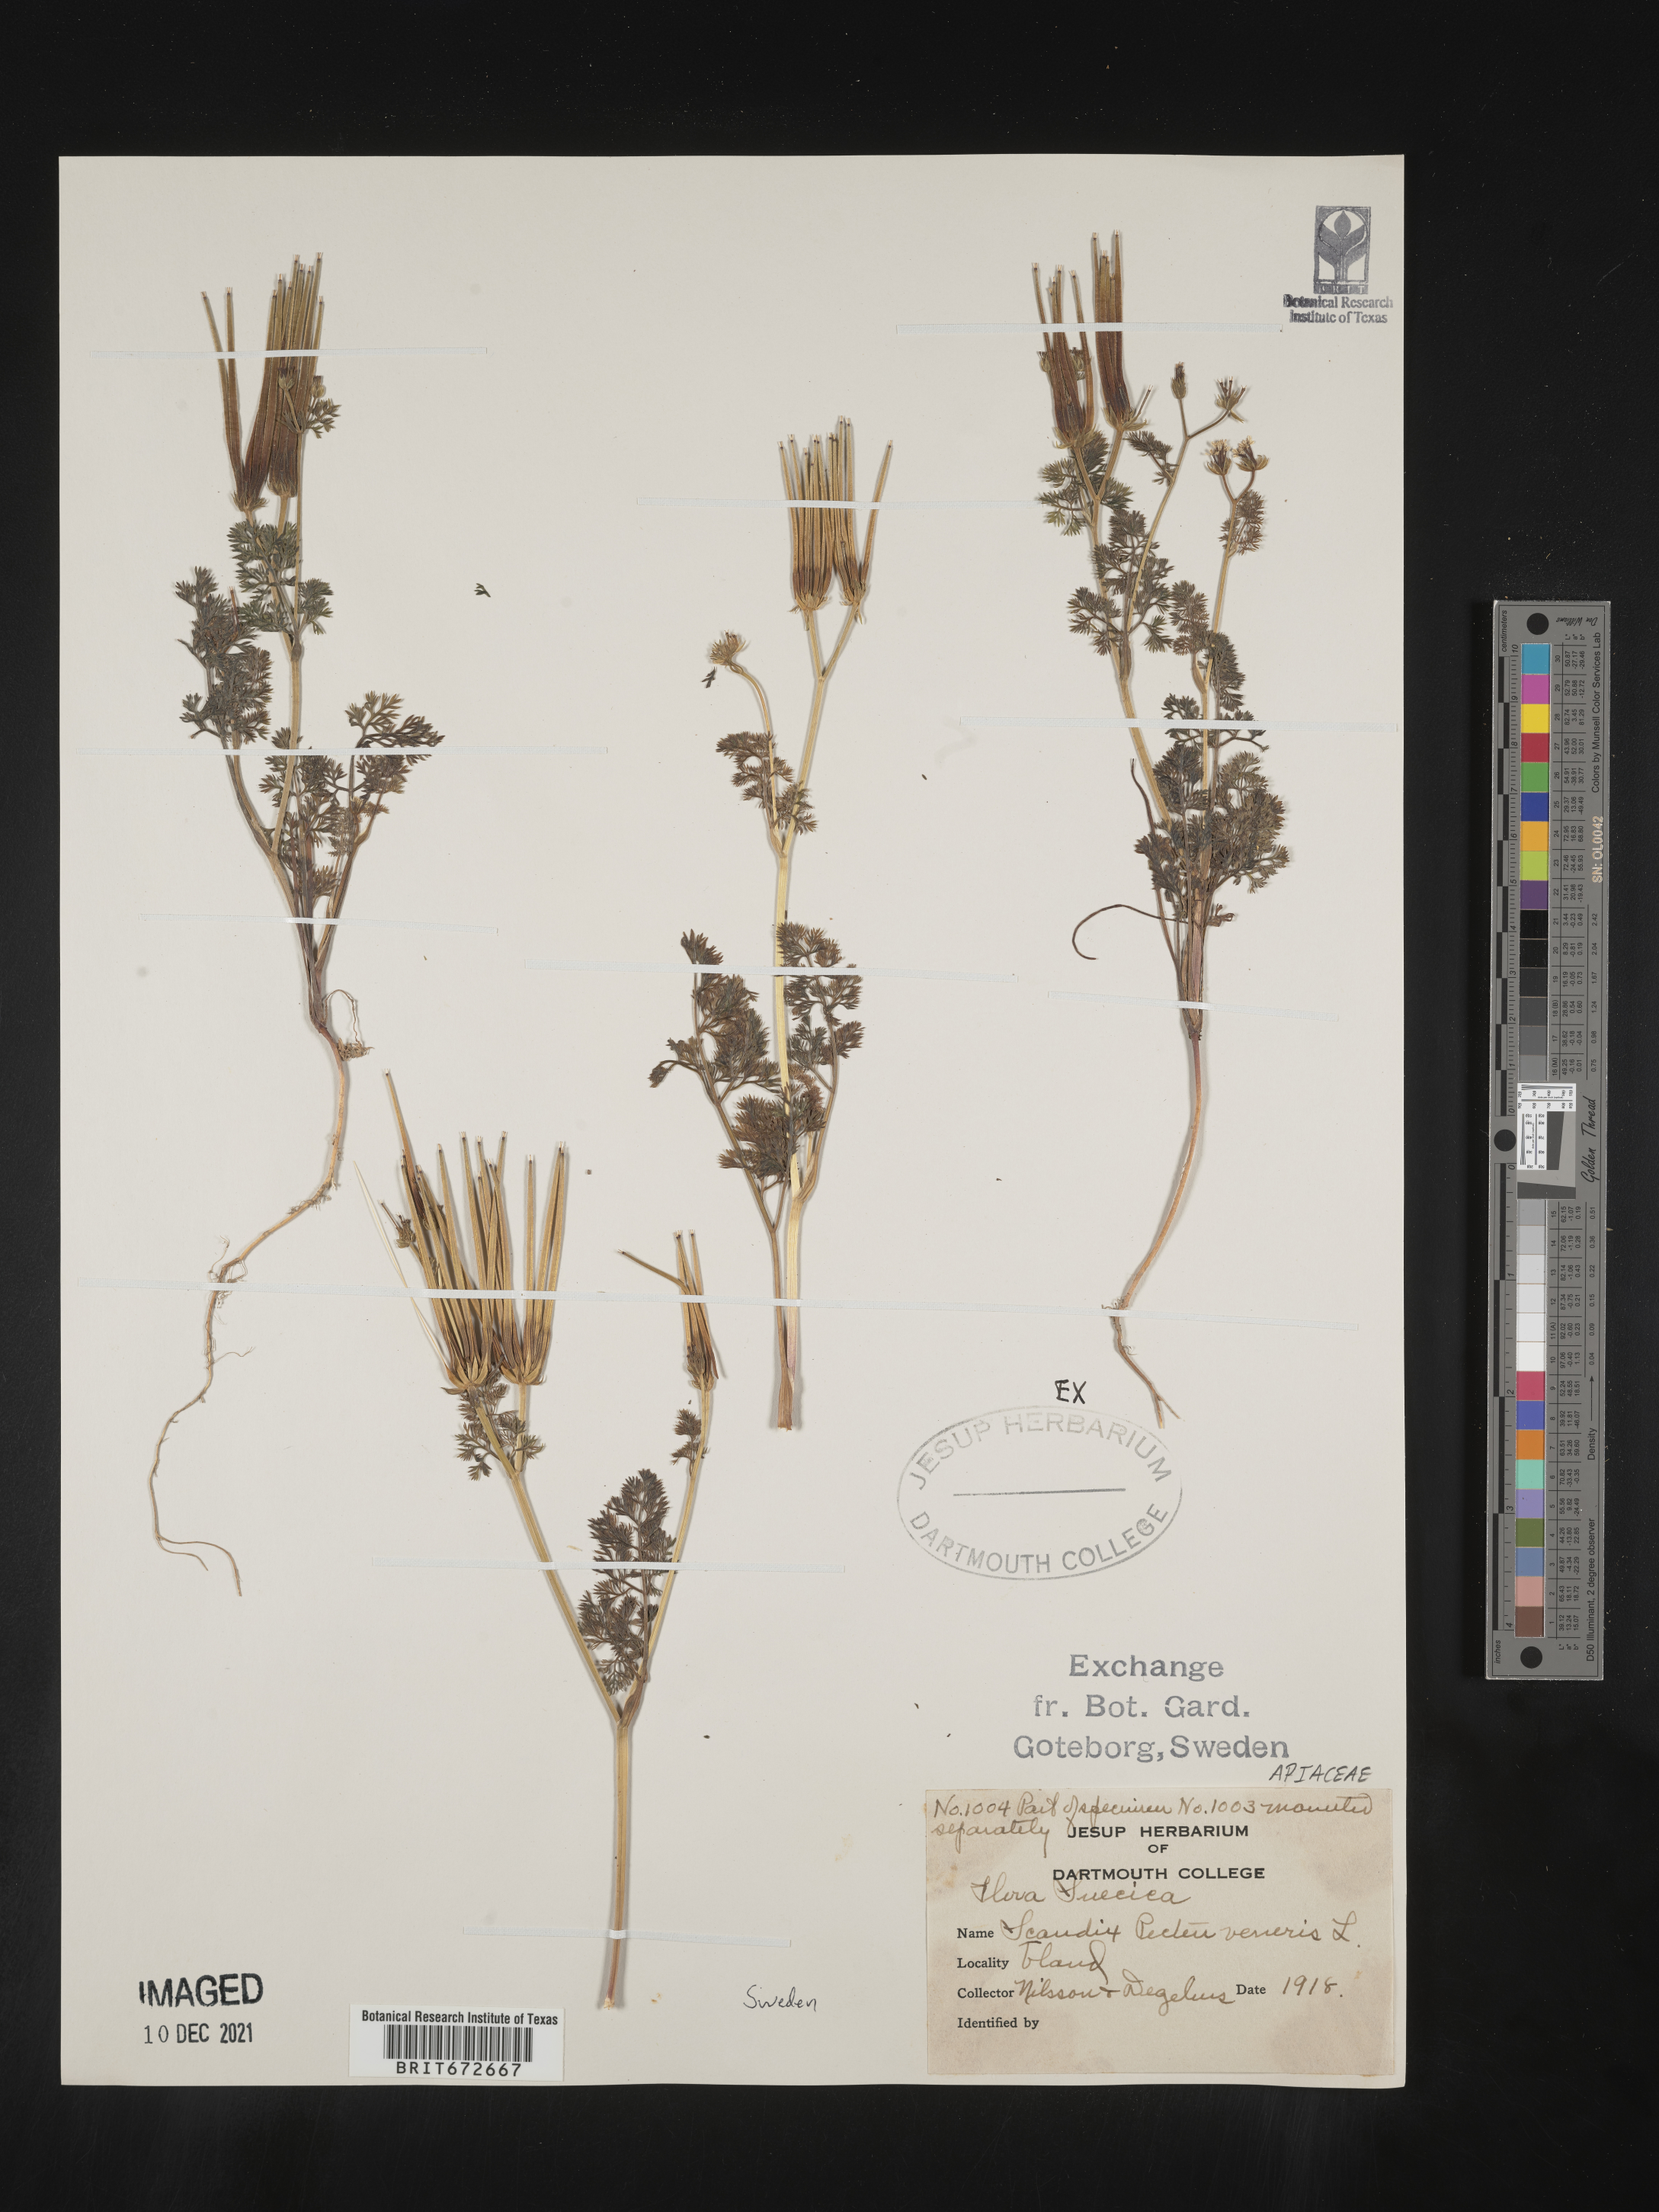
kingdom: Plantae
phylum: Tracheophyta
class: Magnoliopsida
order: Apiales
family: Apiaceae
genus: Scandix
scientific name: Scandix
